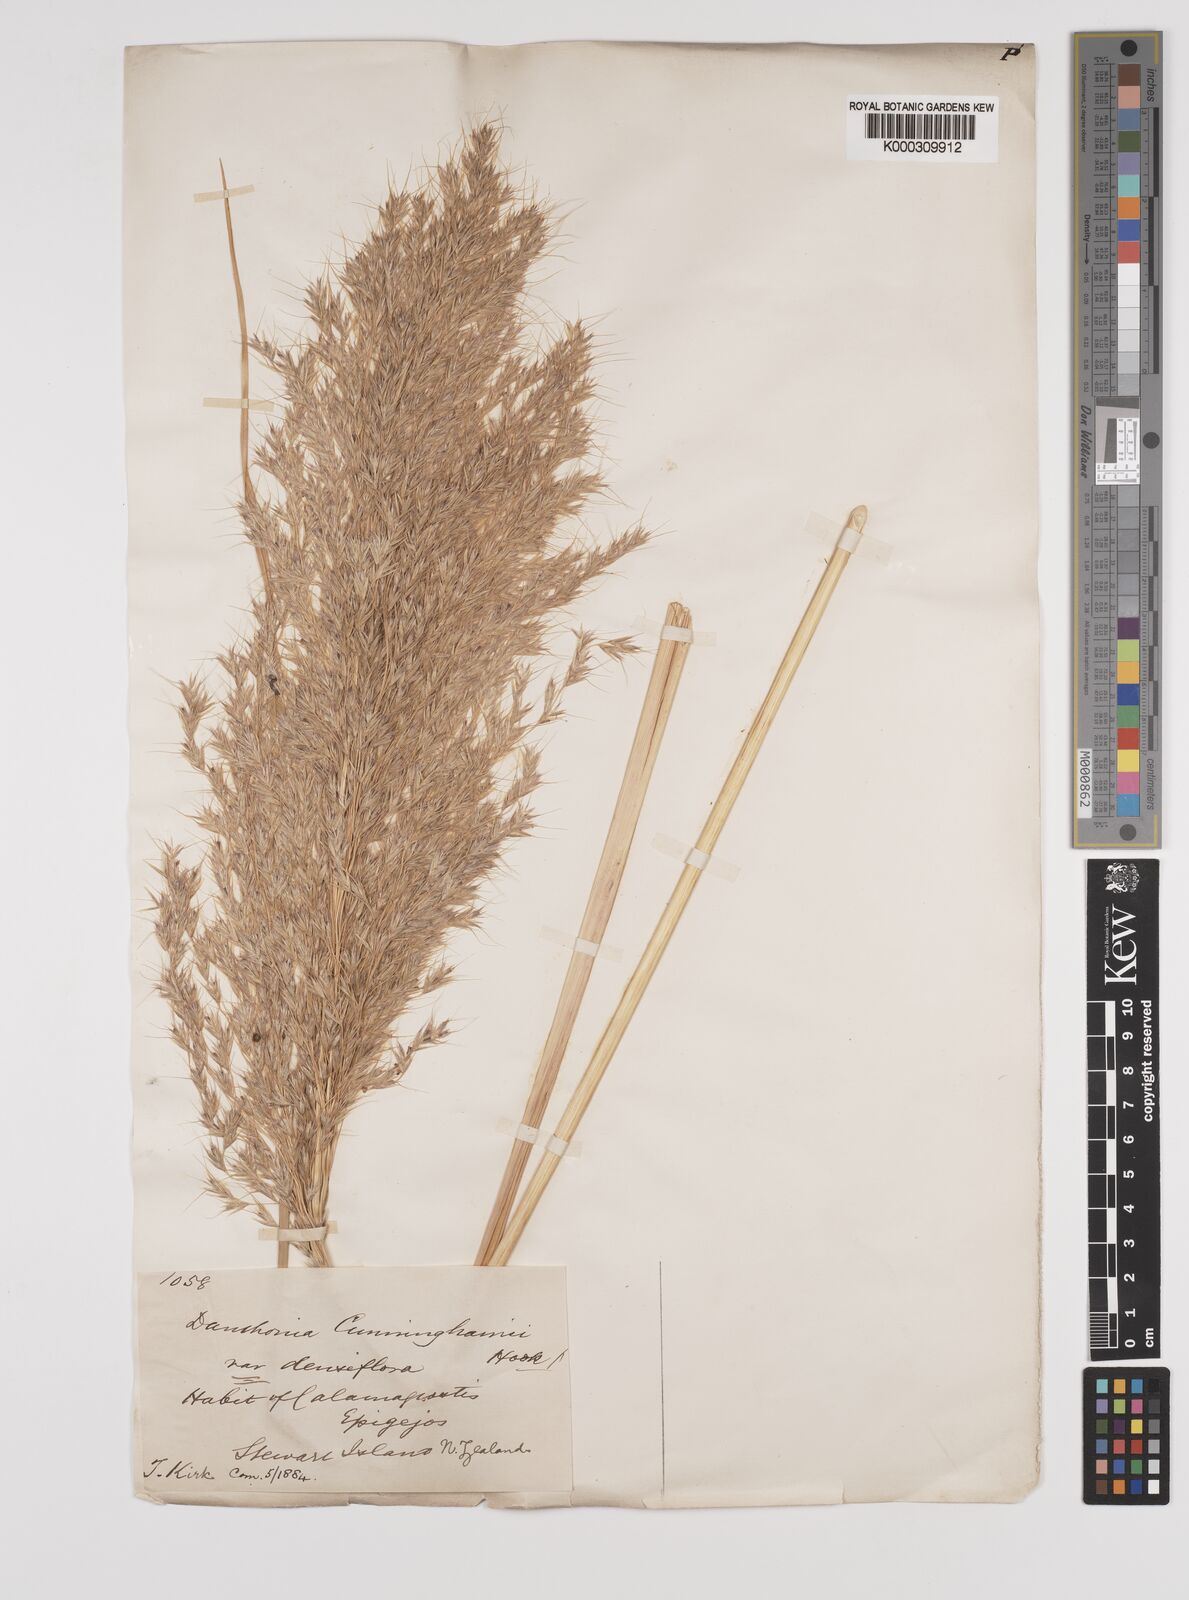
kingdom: Plantae
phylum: Tracheophyta
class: Liliopsida
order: Poales
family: Poaceae
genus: Chionochloa
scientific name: Chionochloa conspicua
